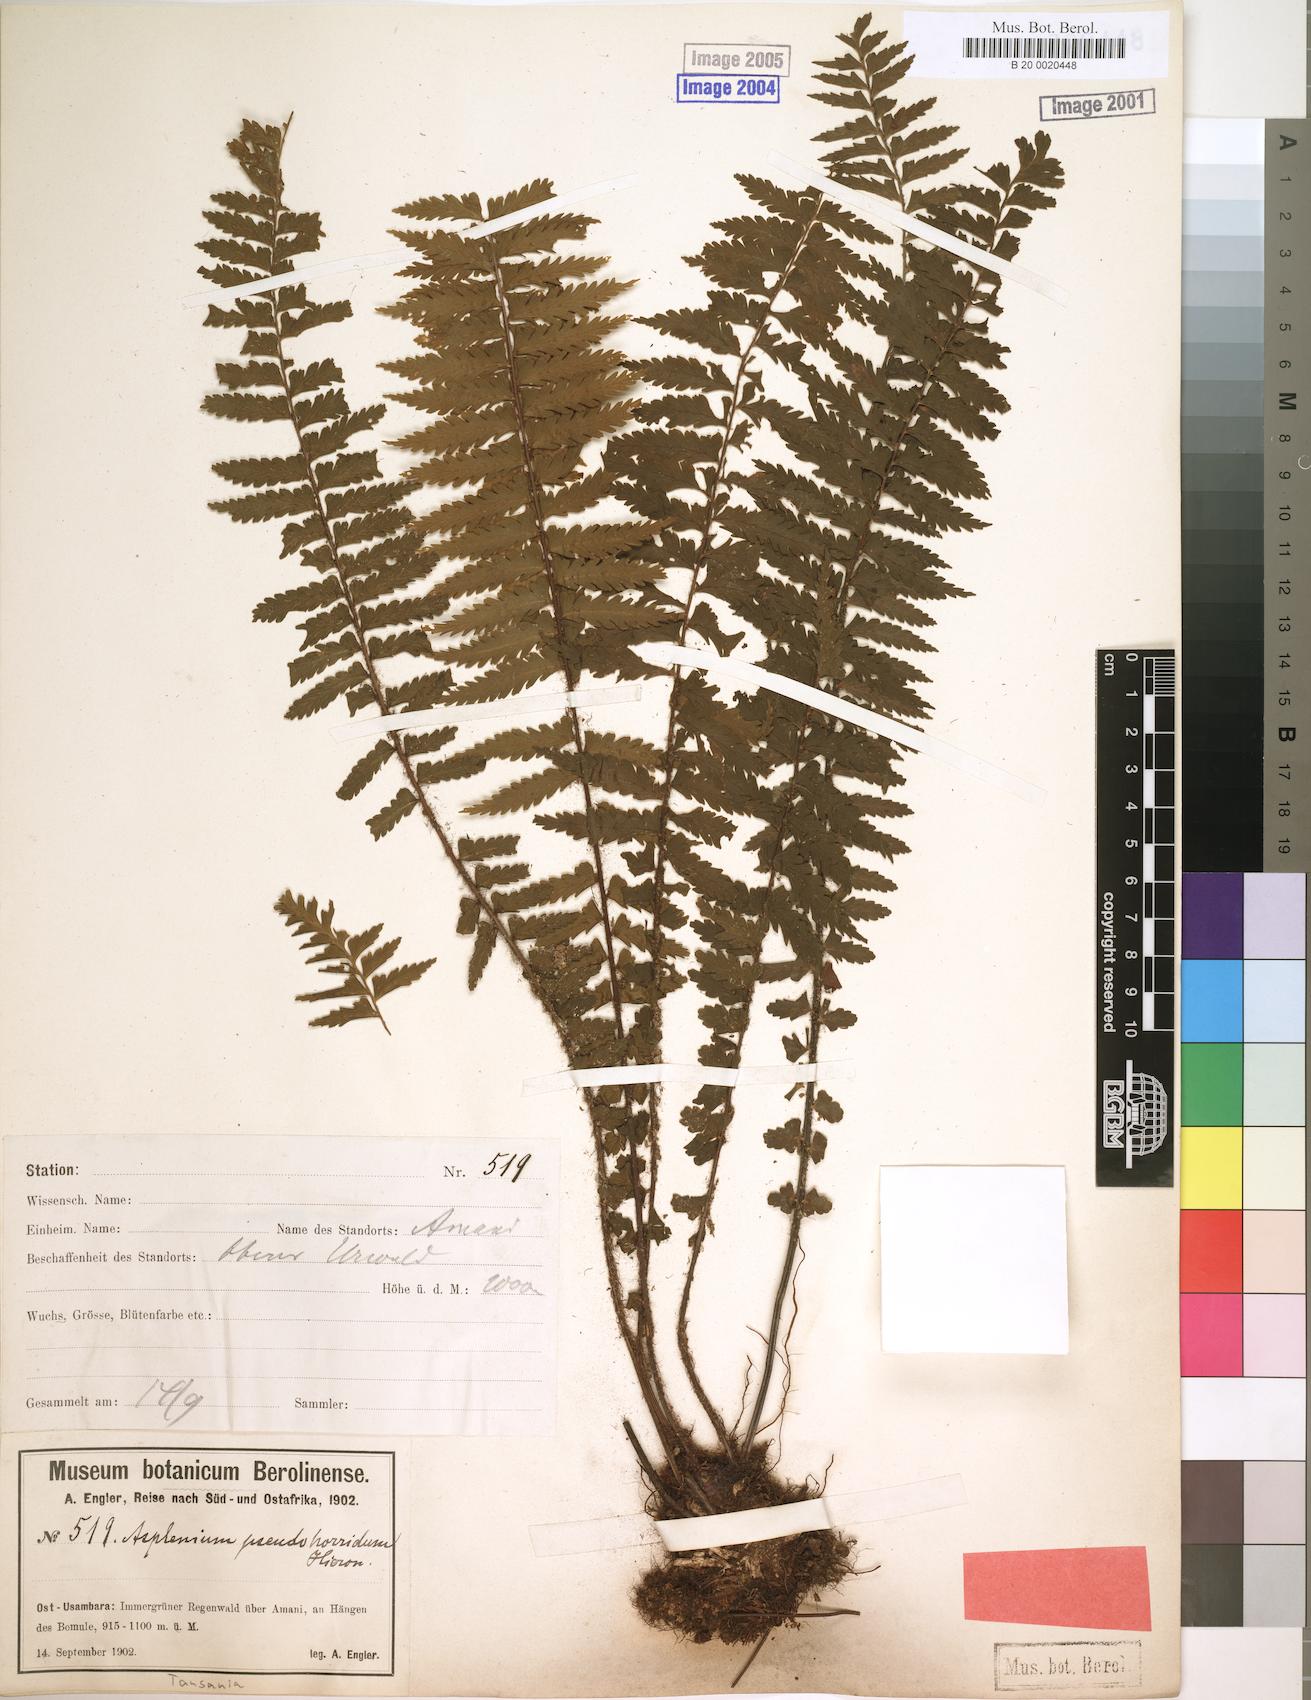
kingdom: Plantae
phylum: Tracheophyta
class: Polypodiopsida
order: Polypodiales
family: Aspleniaceae
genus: Asplenium
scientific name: Asplenium pellucidum
